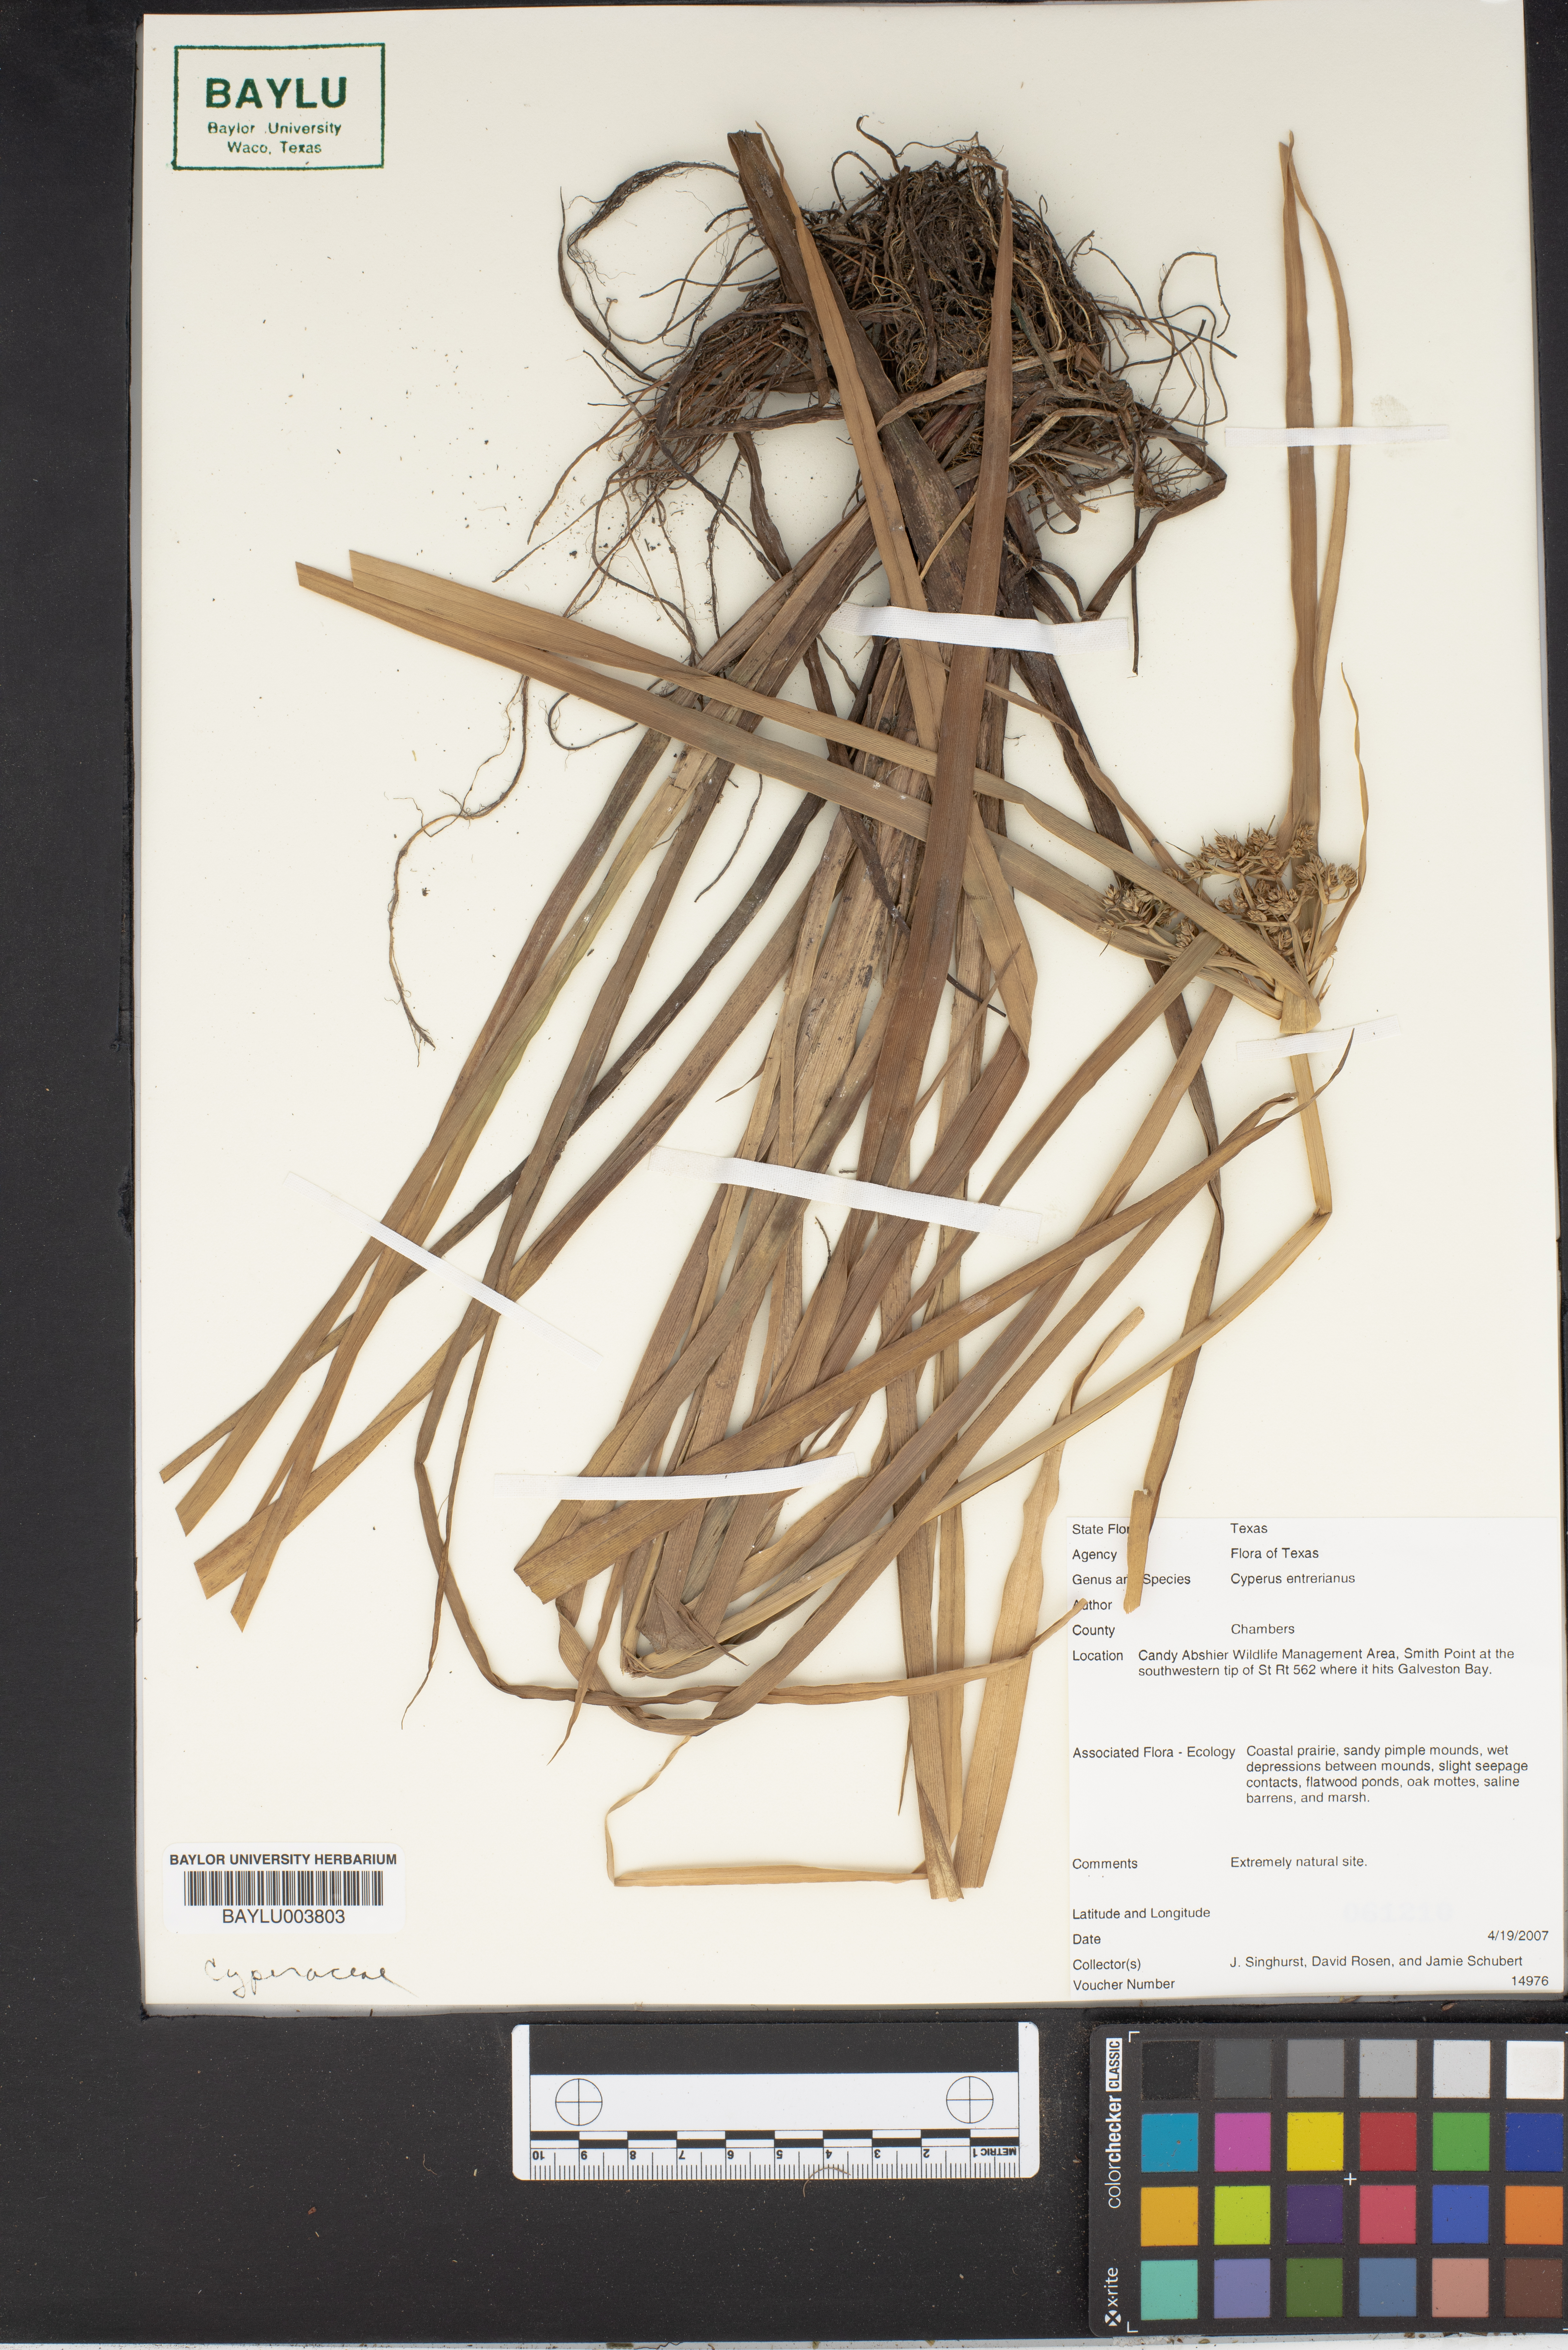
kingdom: Plantae
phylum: Tracheophyta
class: Liliopsida
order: Poales
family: Cyperaceae
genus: Cyperus
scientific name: Cyperus entrerianus
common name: Woodrush flatsedge
